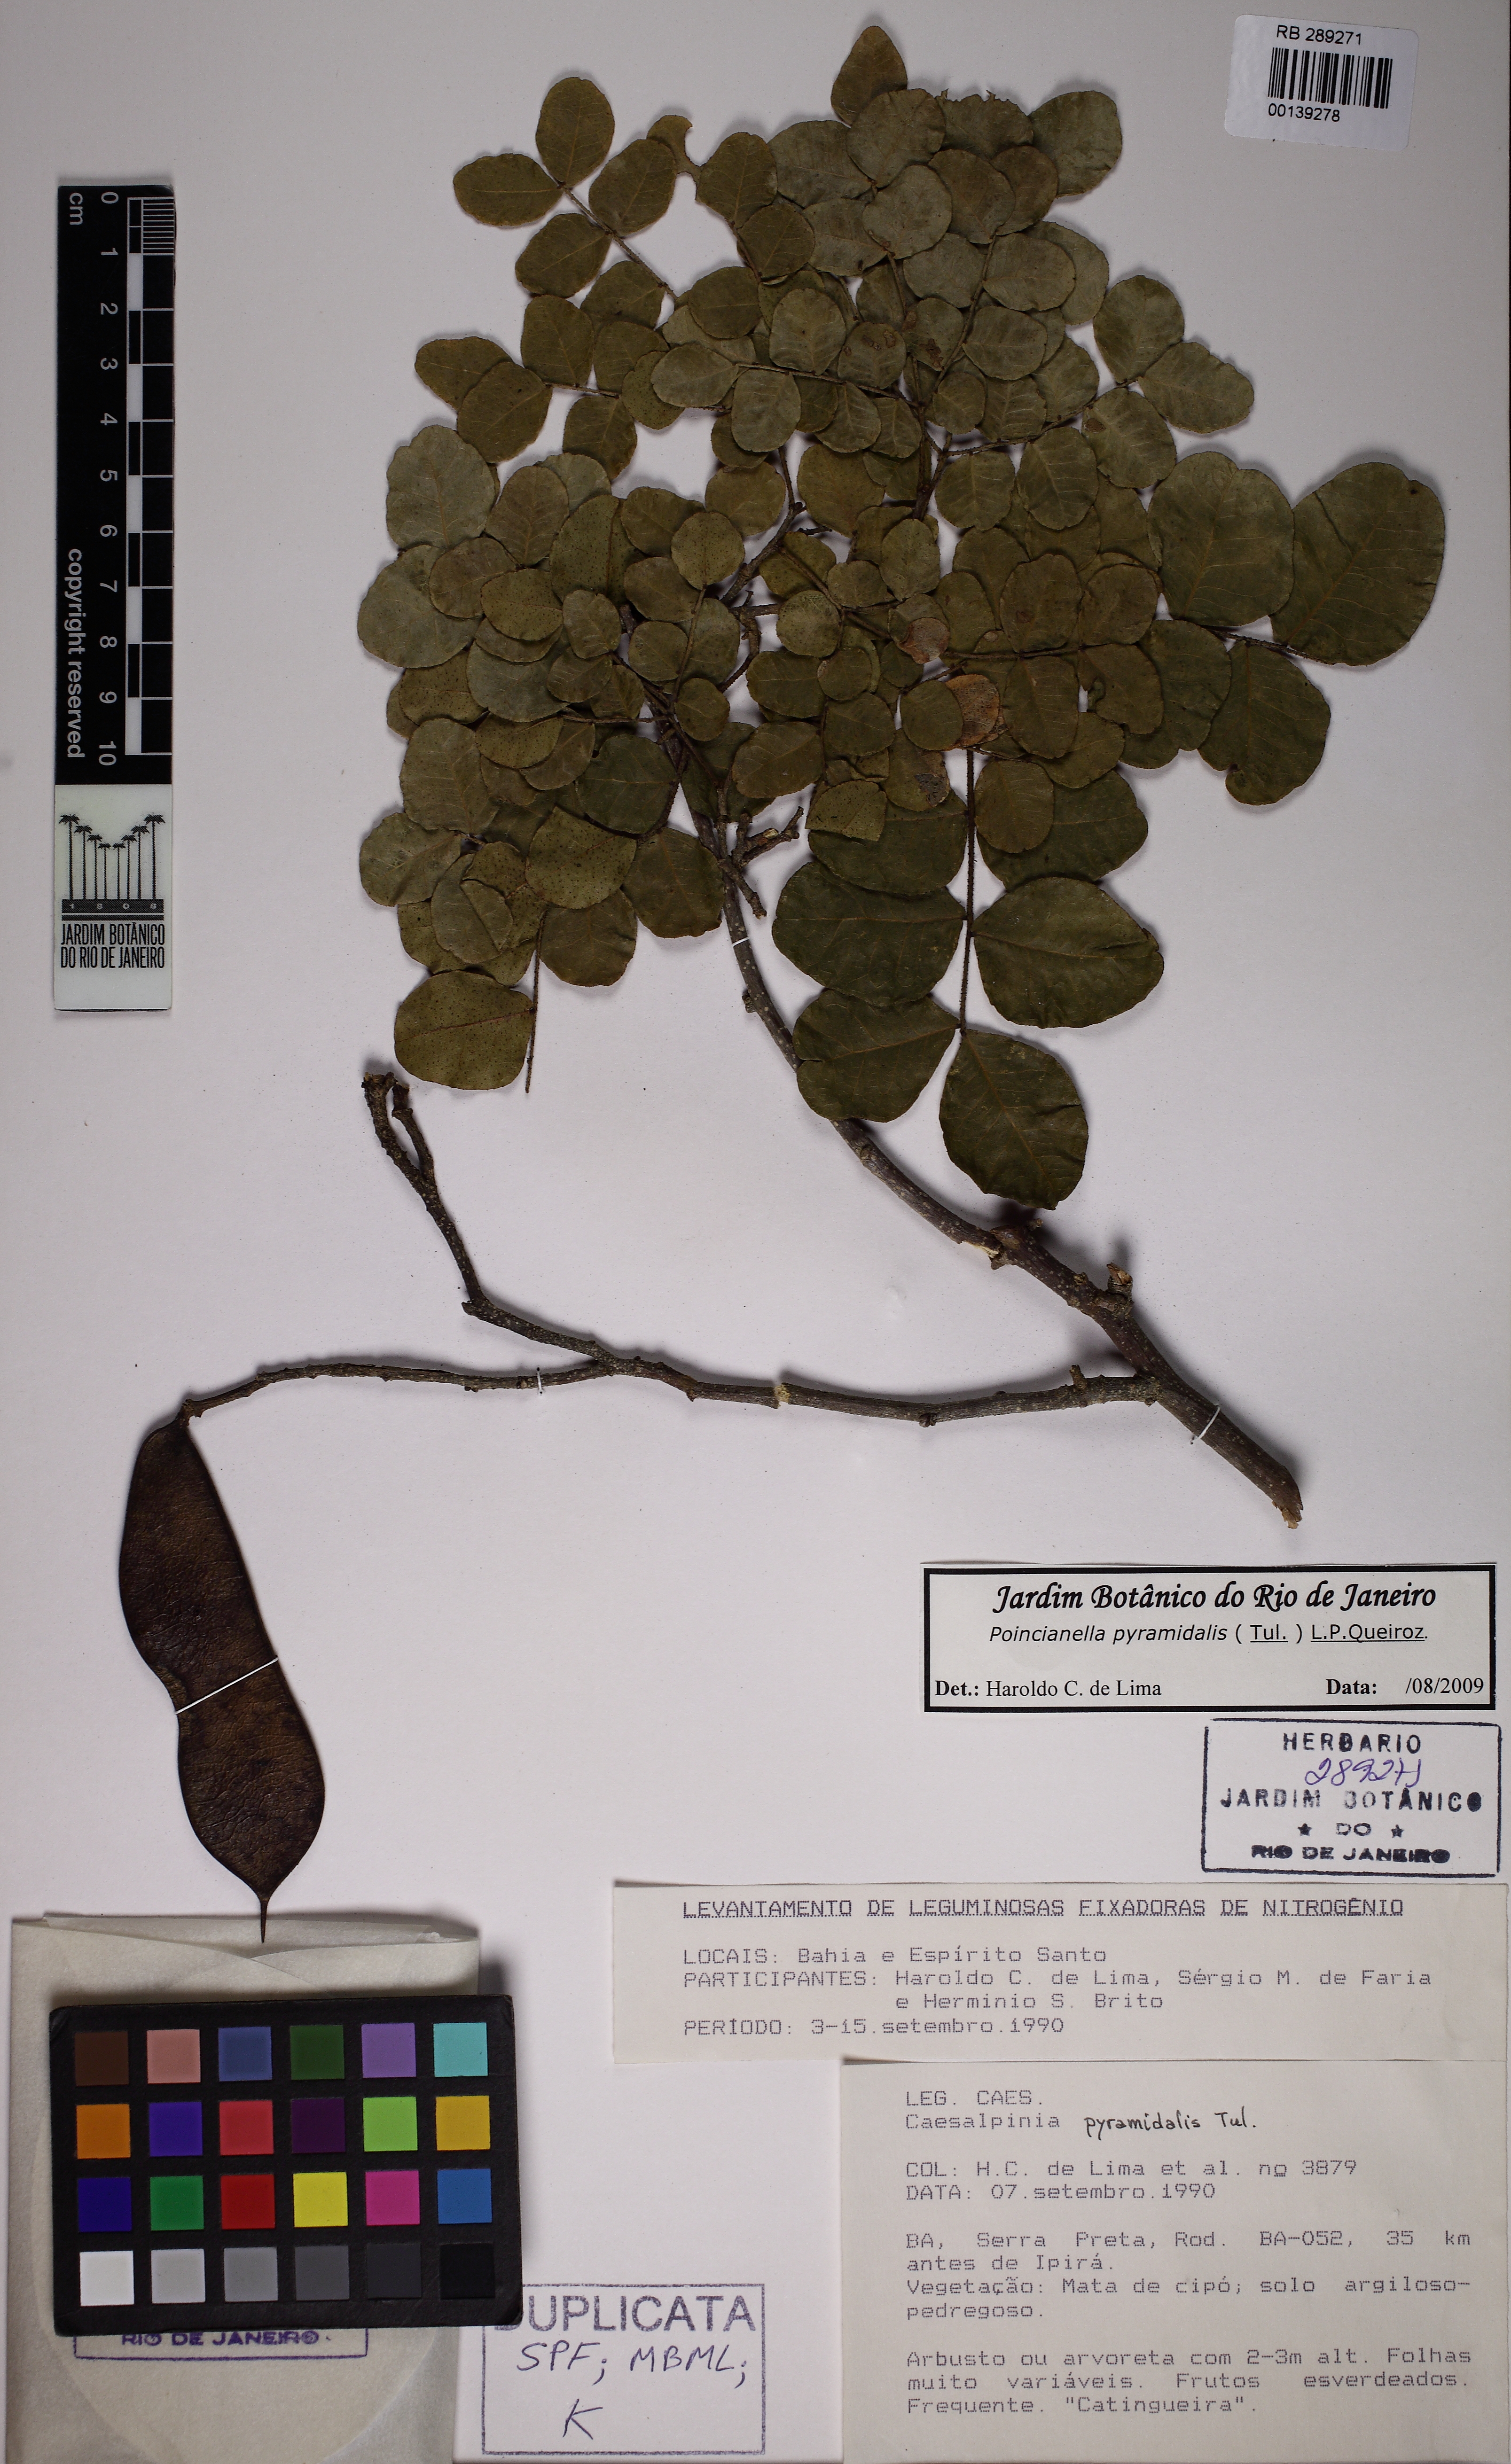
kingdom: Plantae
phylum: Tracheophyta
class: Magnoliopsida
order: Fabales
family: Fabaceae
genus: Cenostigma
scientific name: Cenostigma pyramidale
